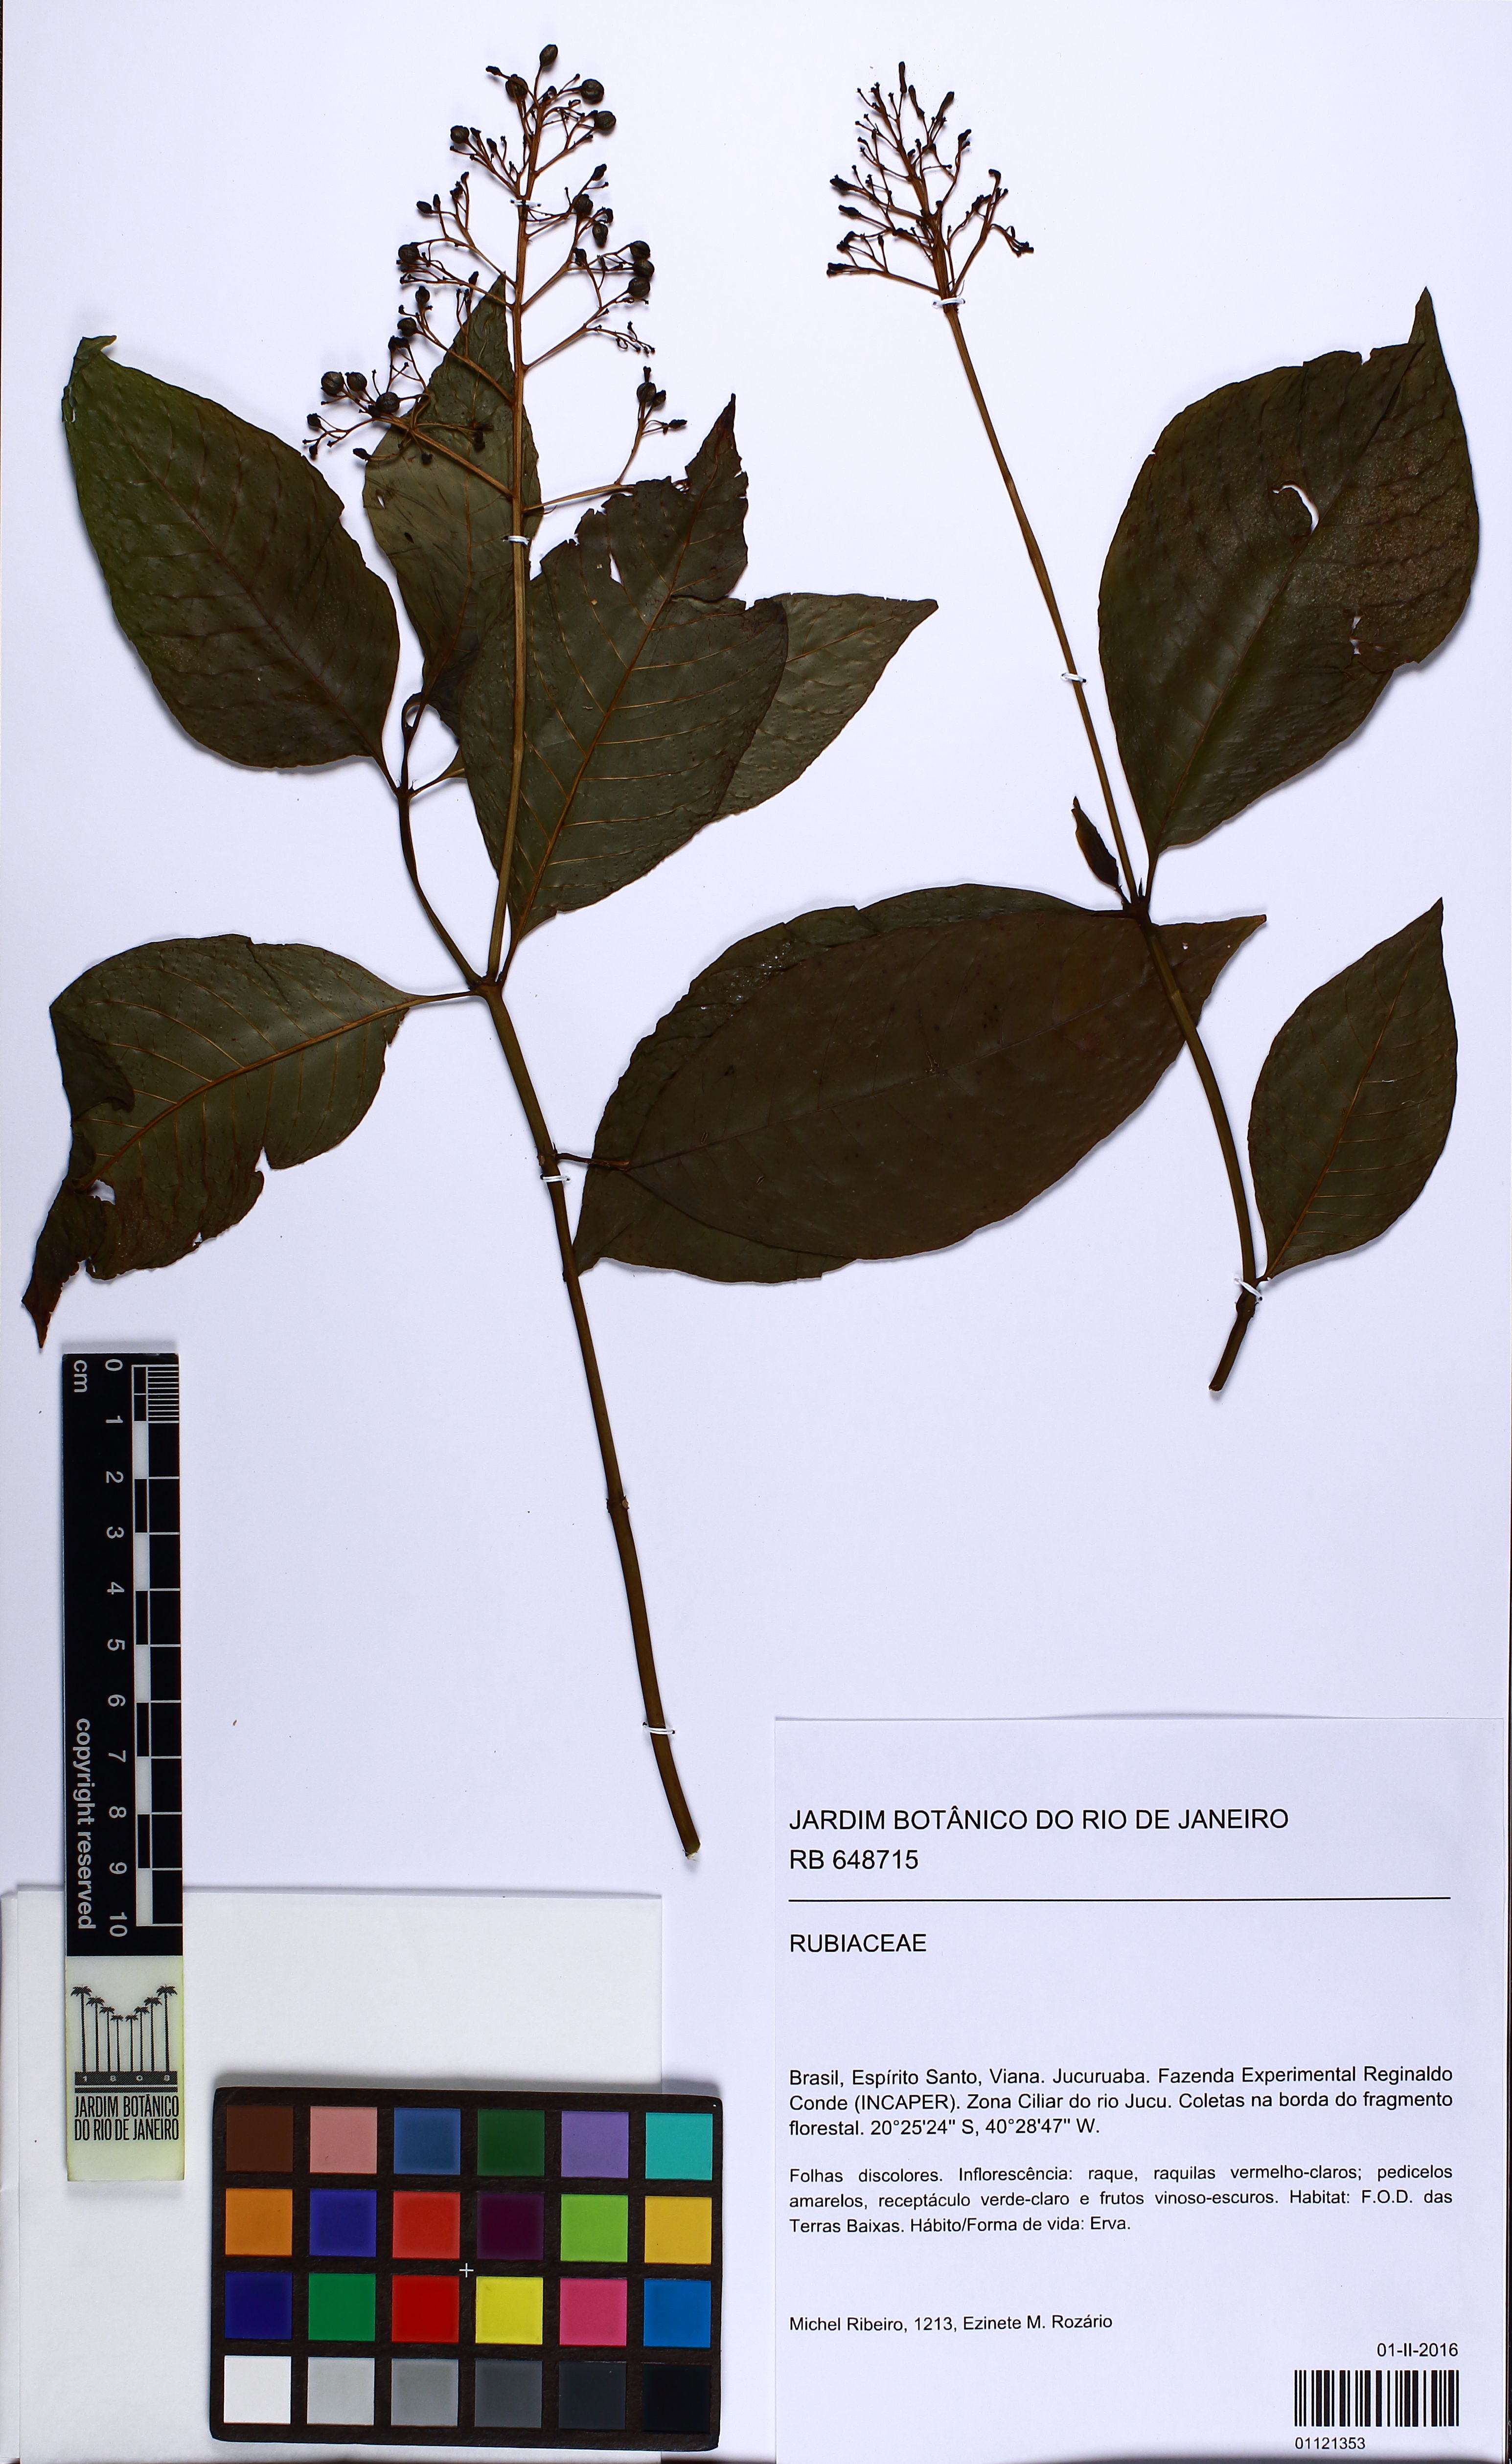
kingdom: Plantae
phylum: Tracheophyta
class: Magnoliopsida
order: Gentianales
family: Rubiaceae
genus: Palicourea
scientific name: Palicourea guianensis
